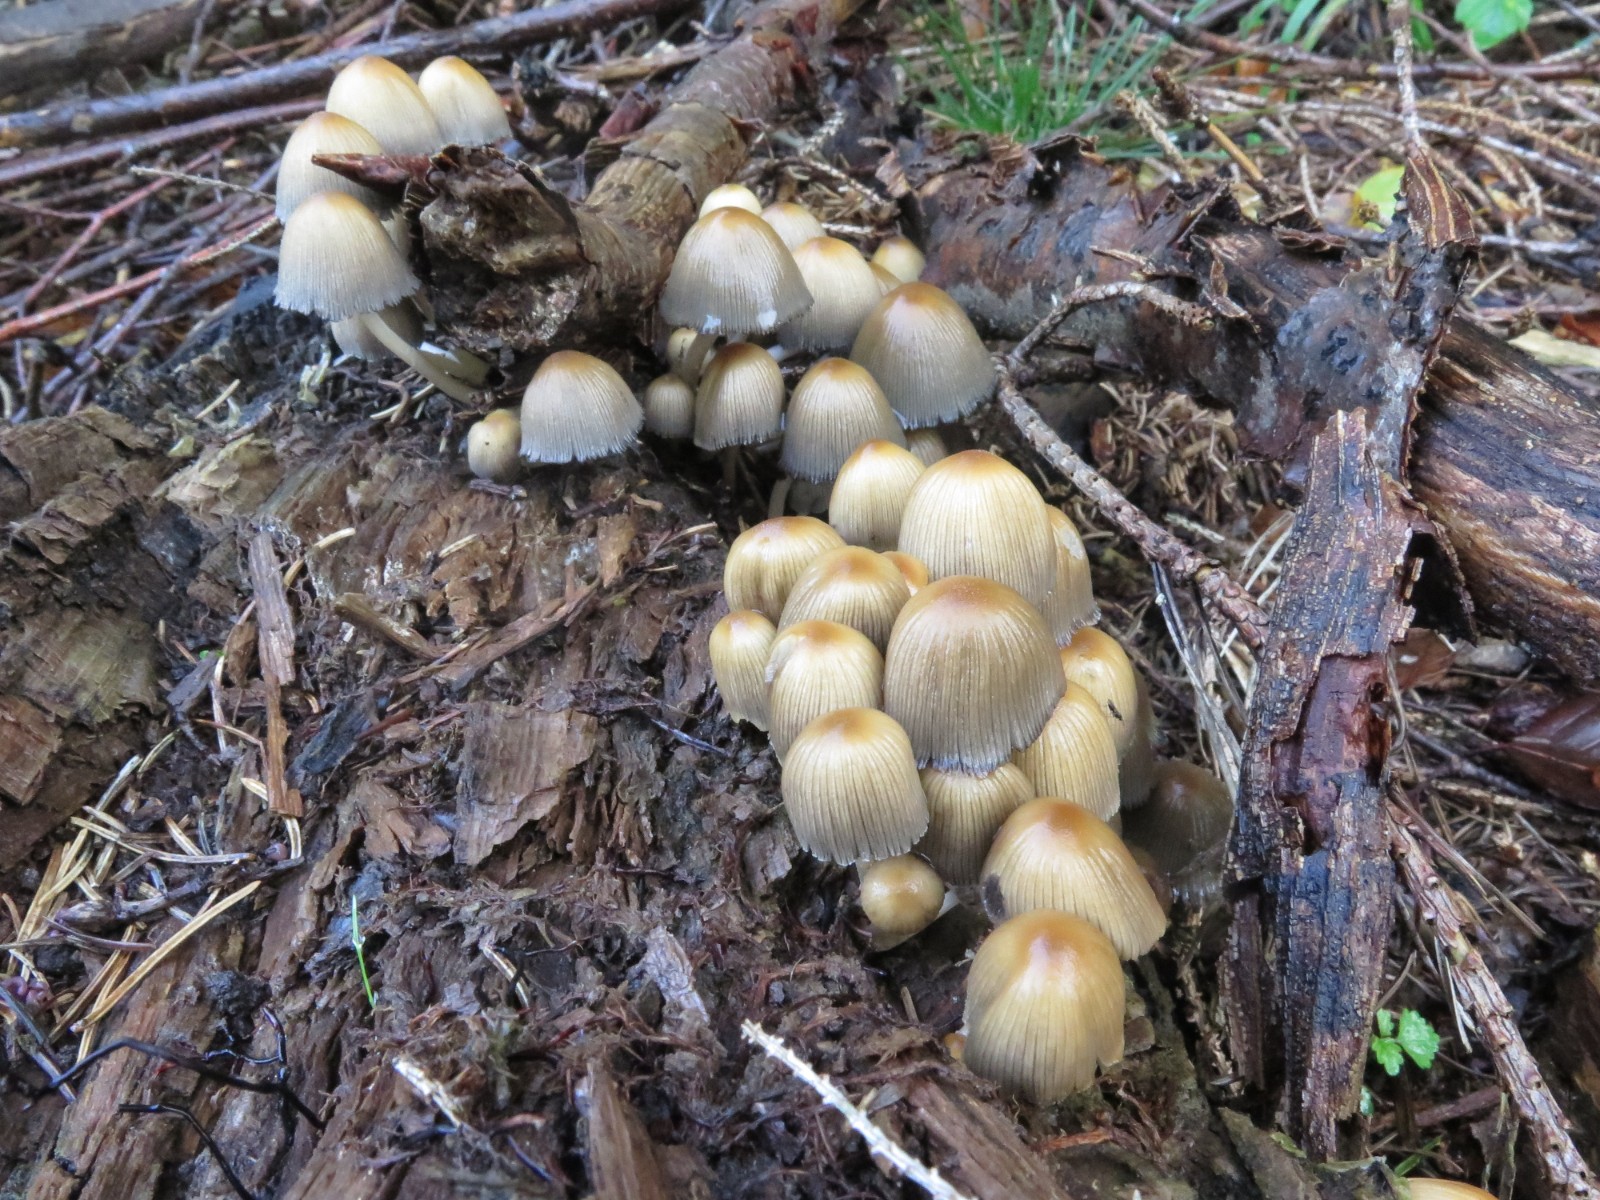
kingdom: Fungi
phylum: Basidiomycota
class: Agaricomycetes
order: Agaricales
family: Psathyrellaceae
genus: Coprinellus
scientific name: Coprinellus micaceus
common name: glimmer-blækhat
